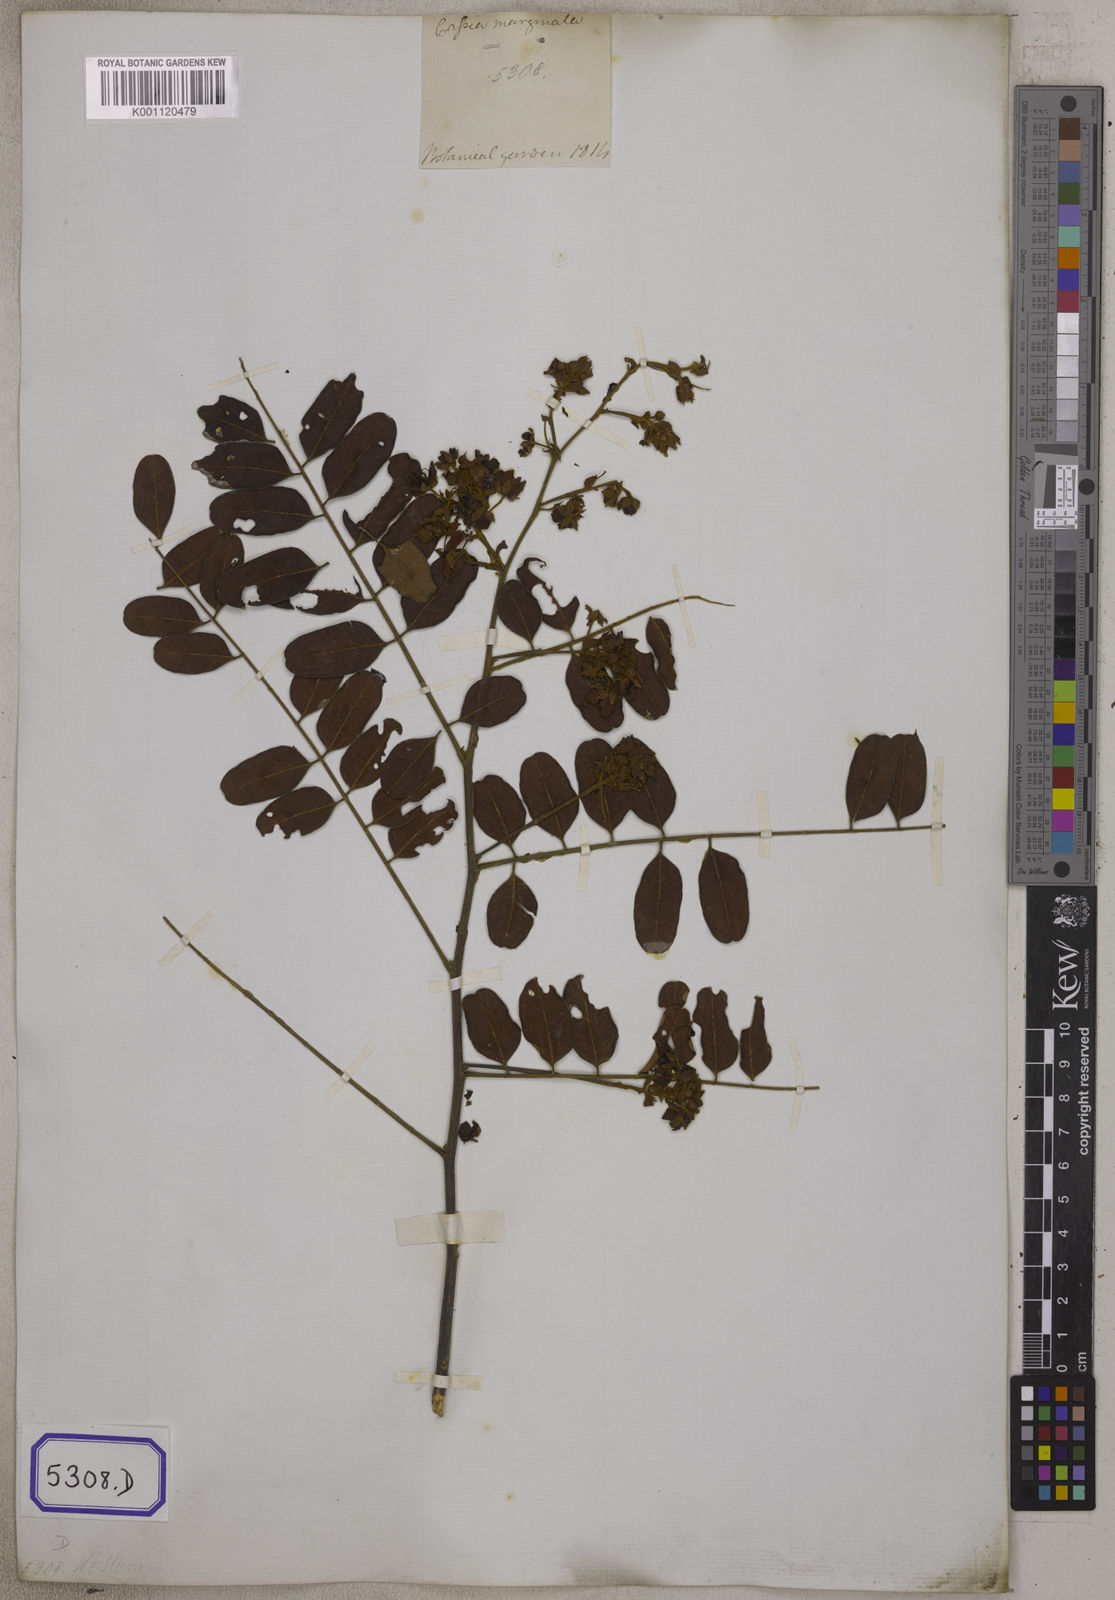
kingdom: Plantae
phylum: Tracheophyta
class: Magnoliopsida
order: Fabales
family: Fabaceae
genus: Cassia
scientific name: Cassia roxburghii
